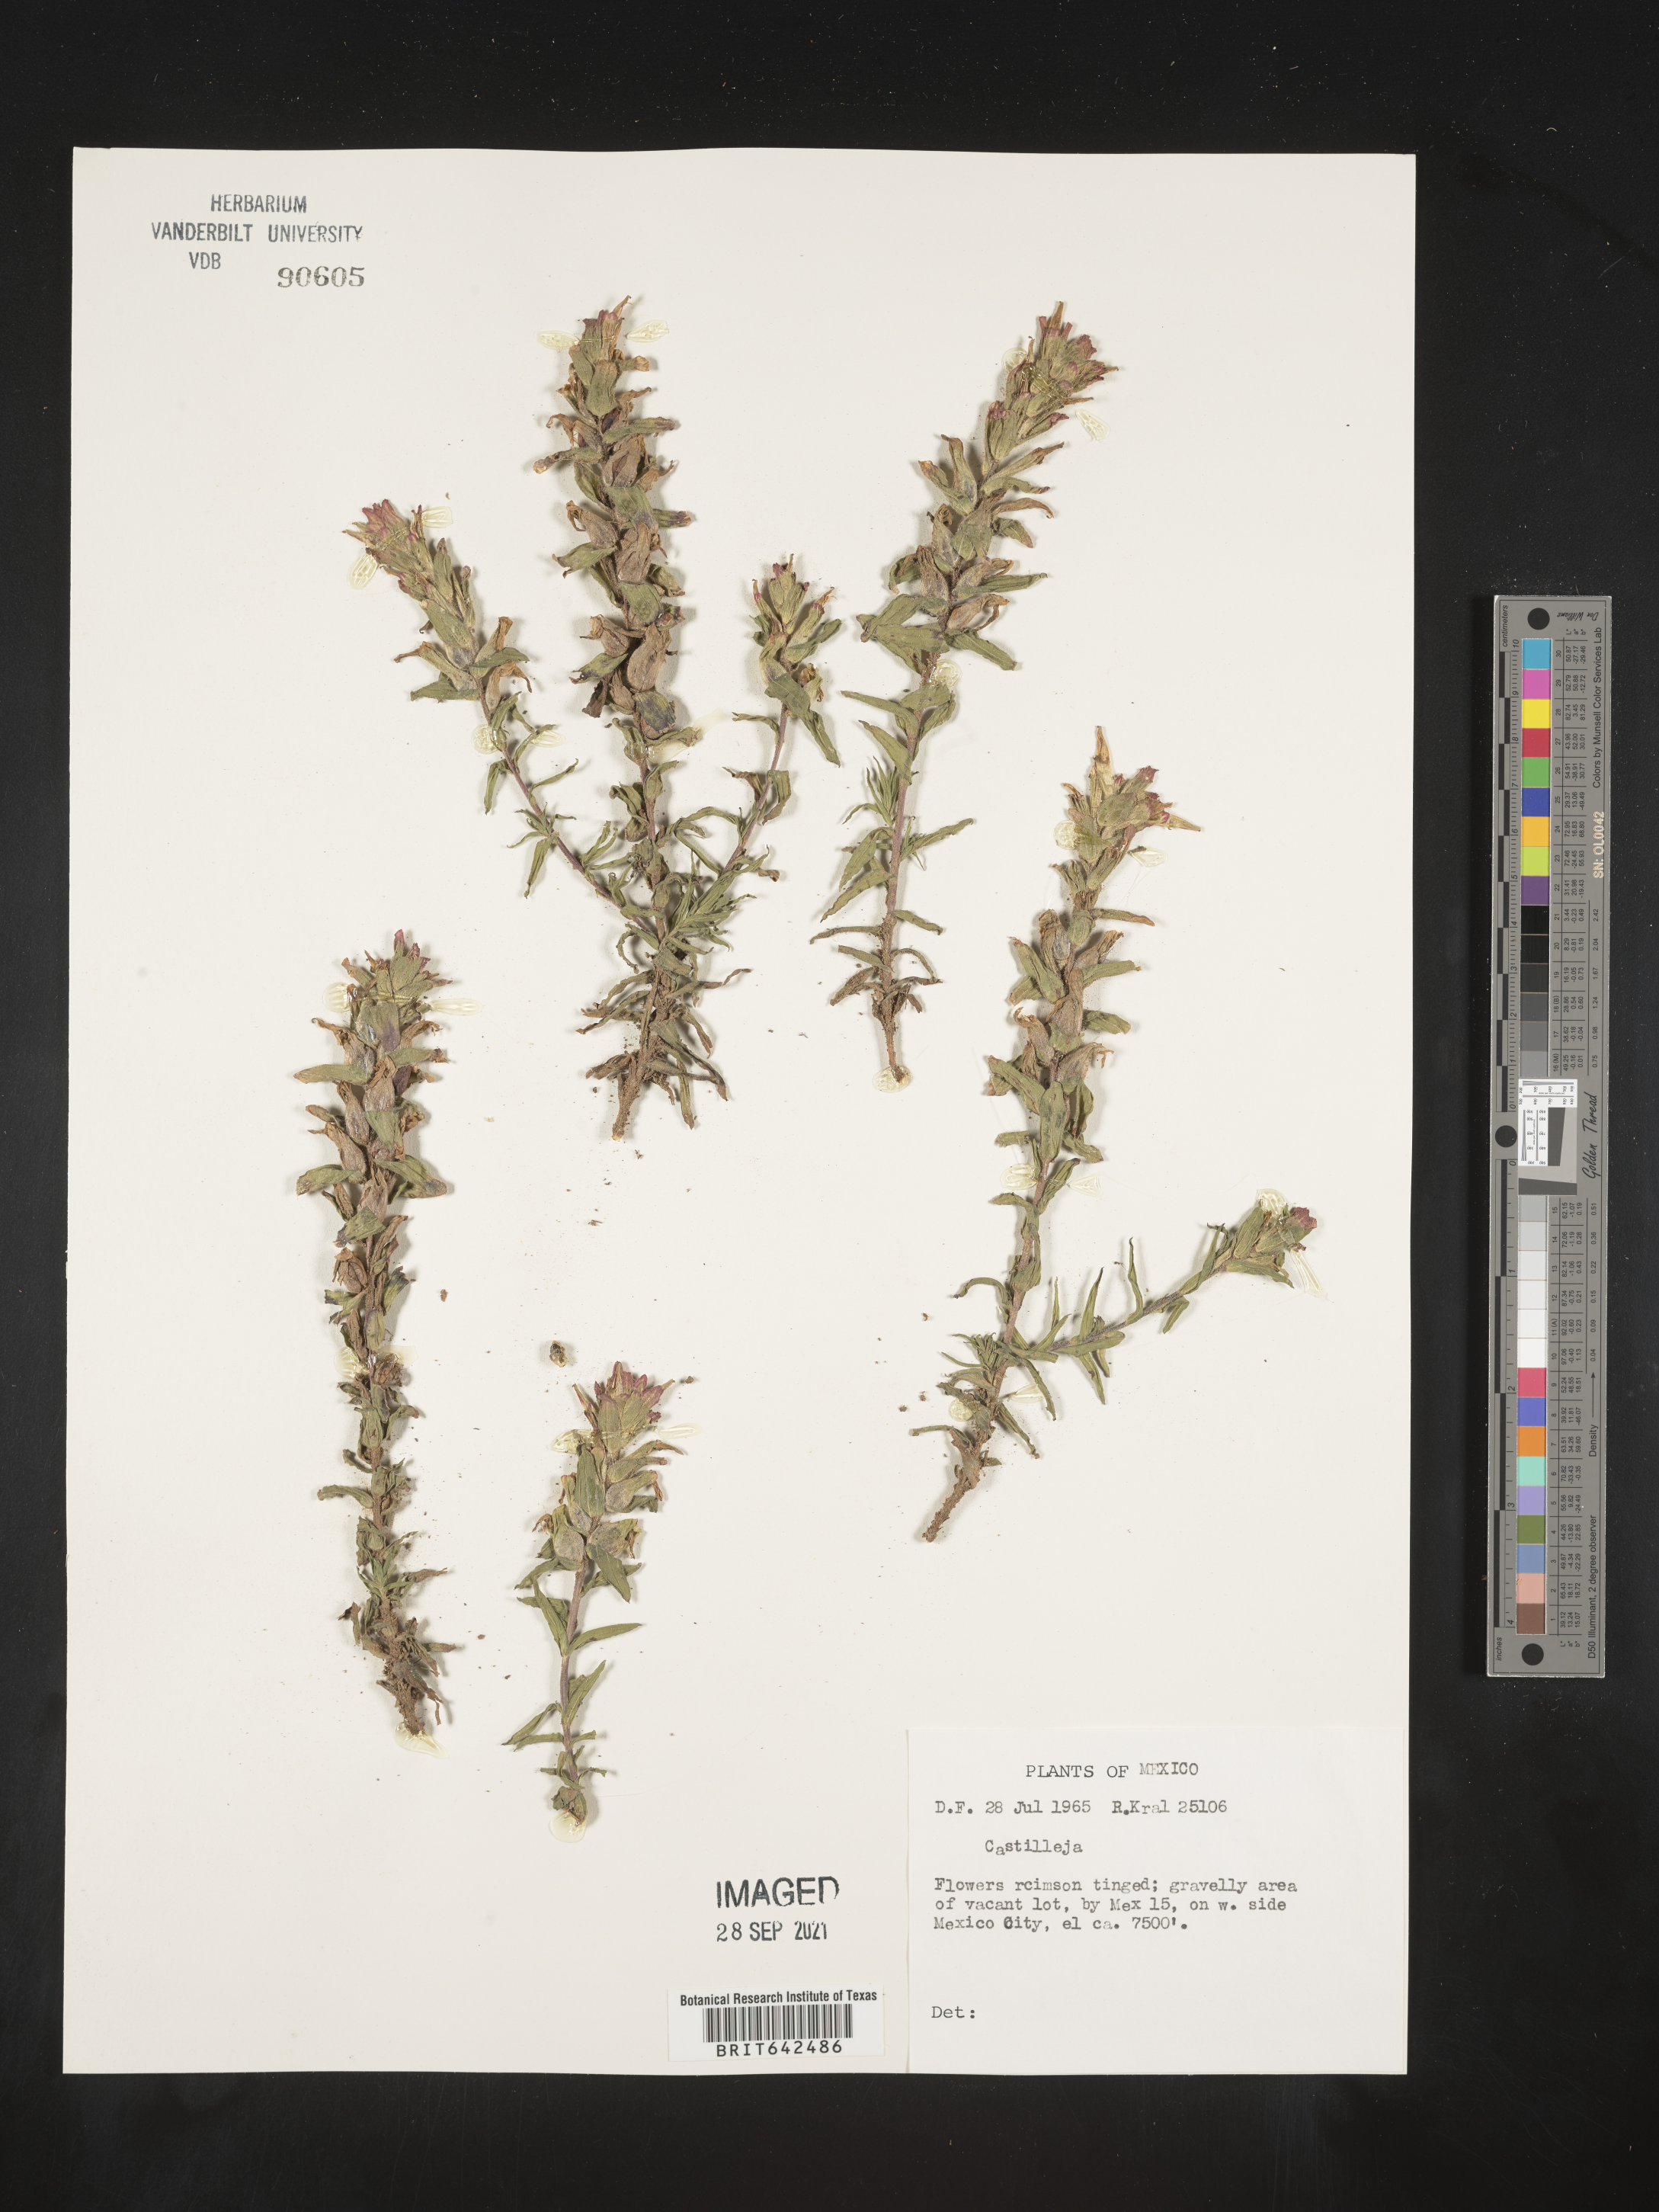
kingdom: Plantae
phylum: Tracheophyta
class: Magnoliopsida
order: Lamiales
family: Orobanchaceae
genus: Castilleja
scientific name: Castilleja
